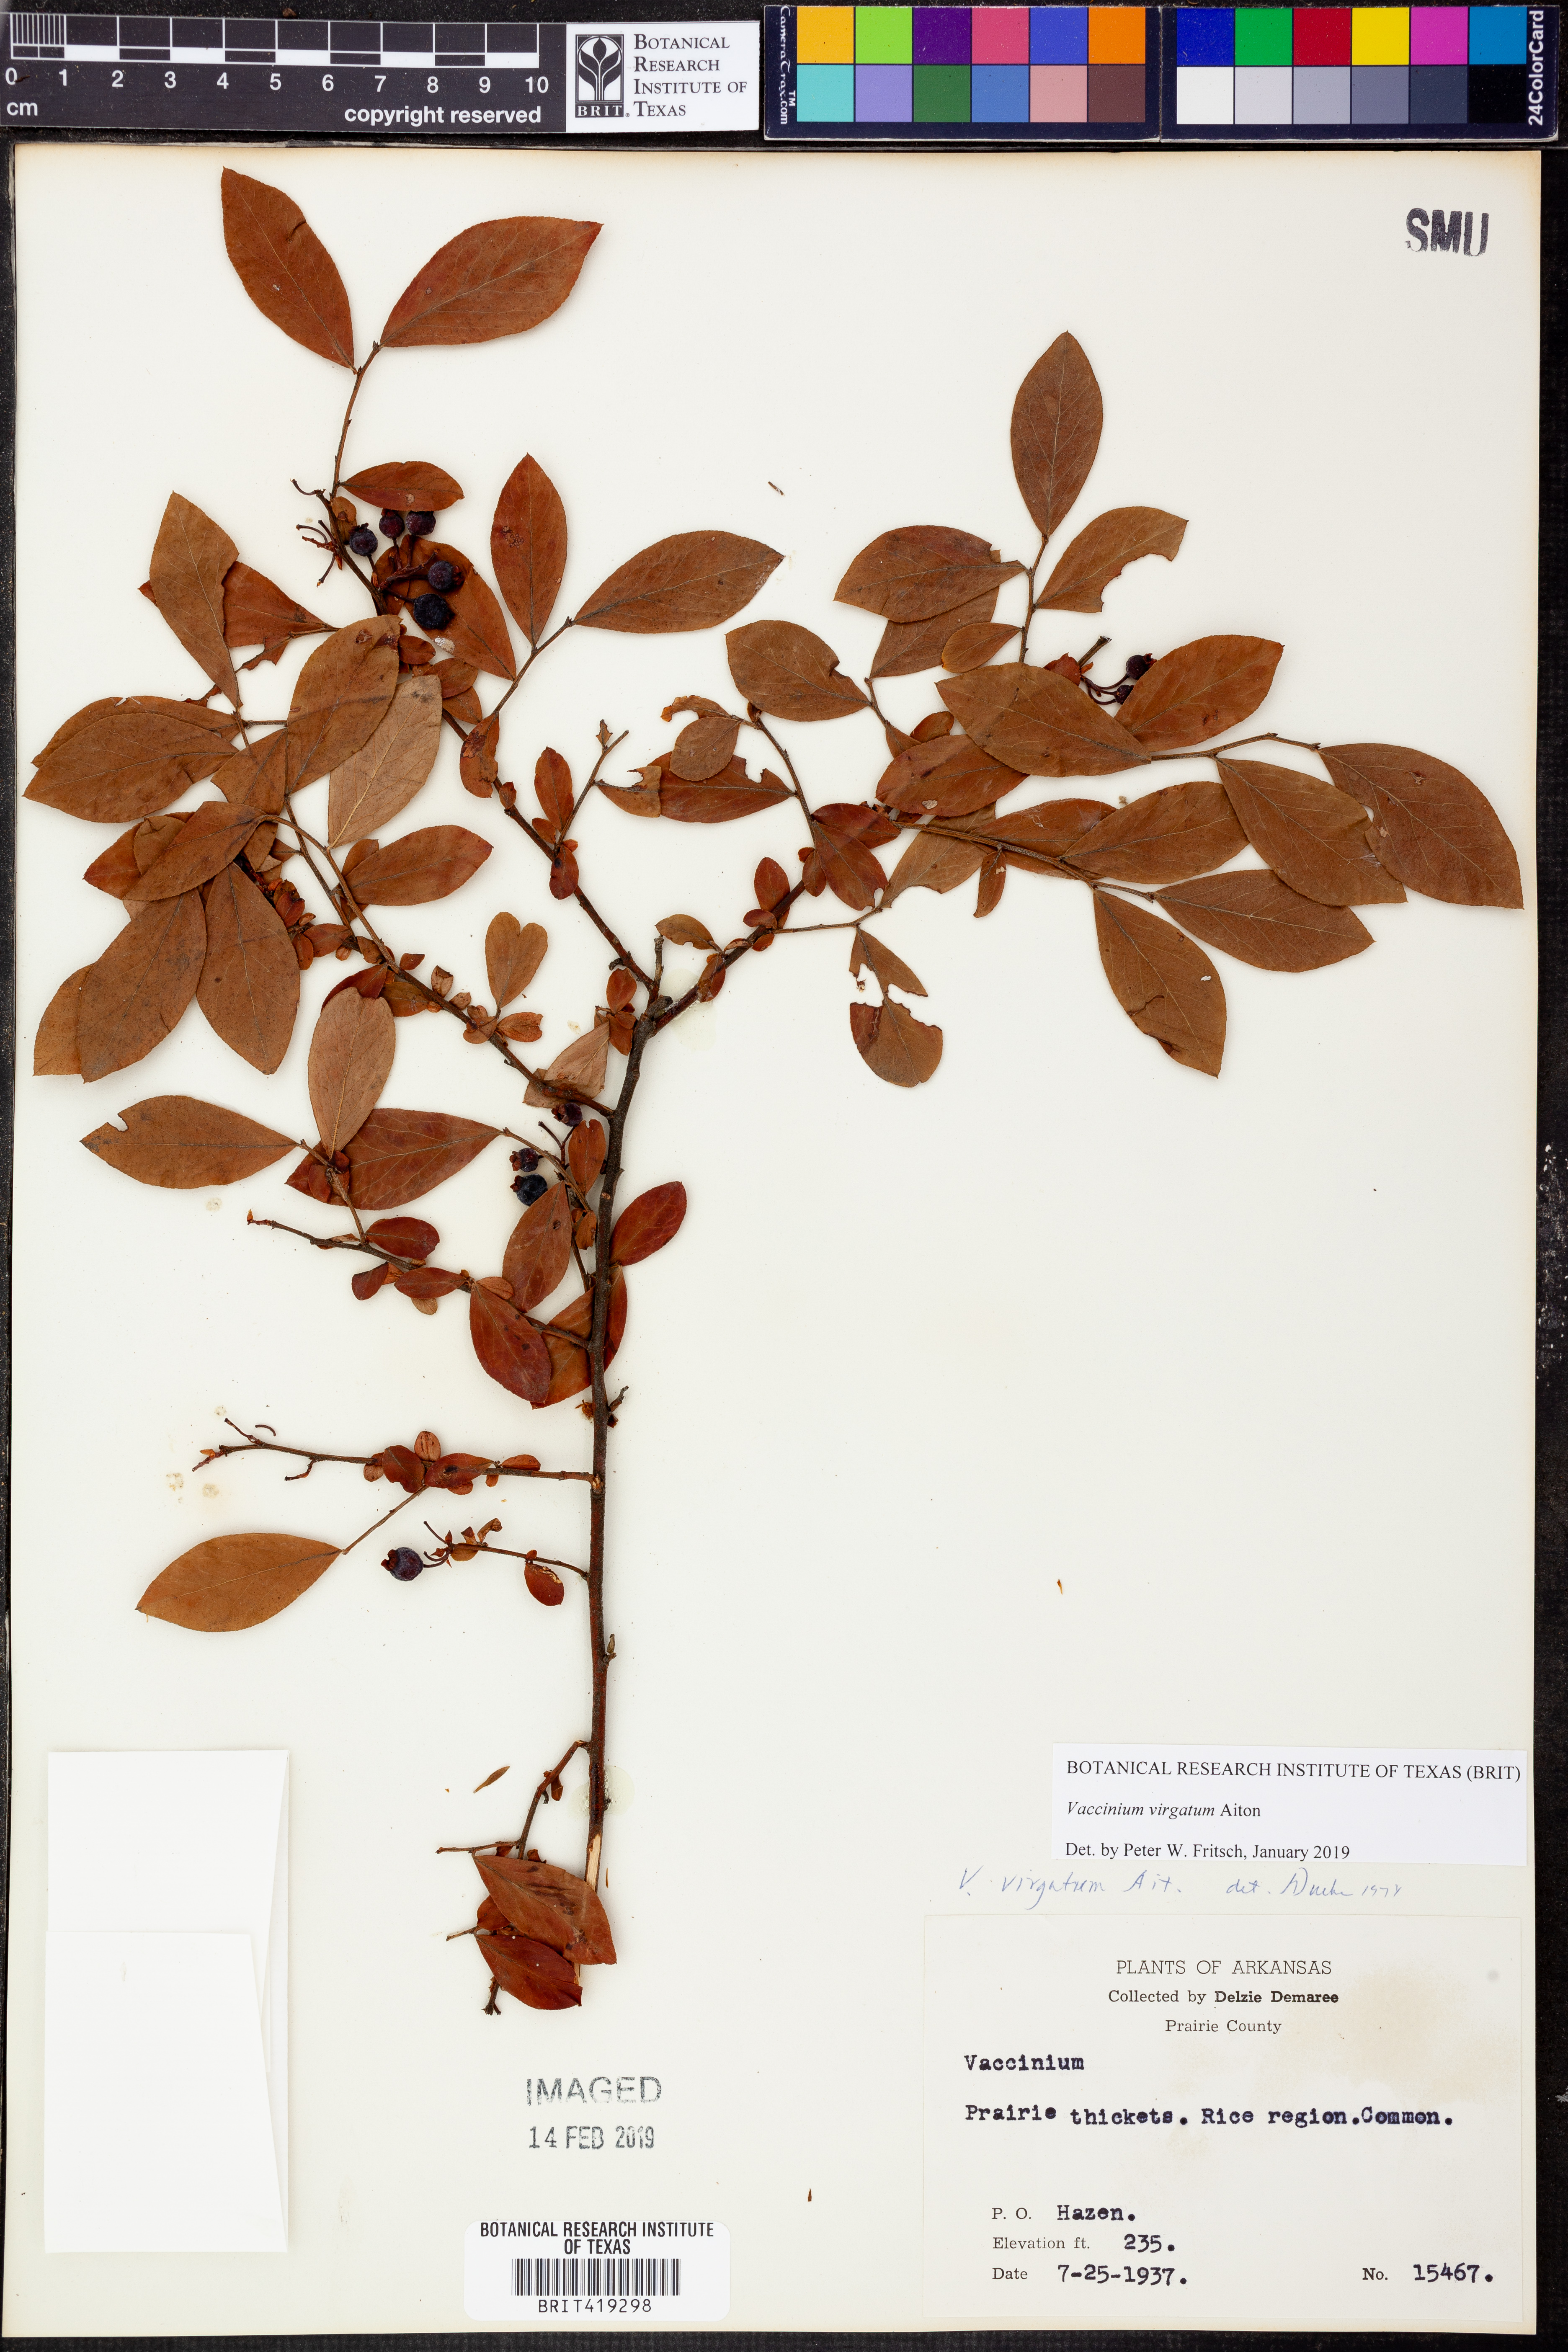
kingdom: Plantae
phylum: Tracheophyta
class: Magnoliopsida
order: Ericales
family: Ericaceae
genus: Vaccinium
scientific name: Vaccinium corymbosum
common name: Blueberry
